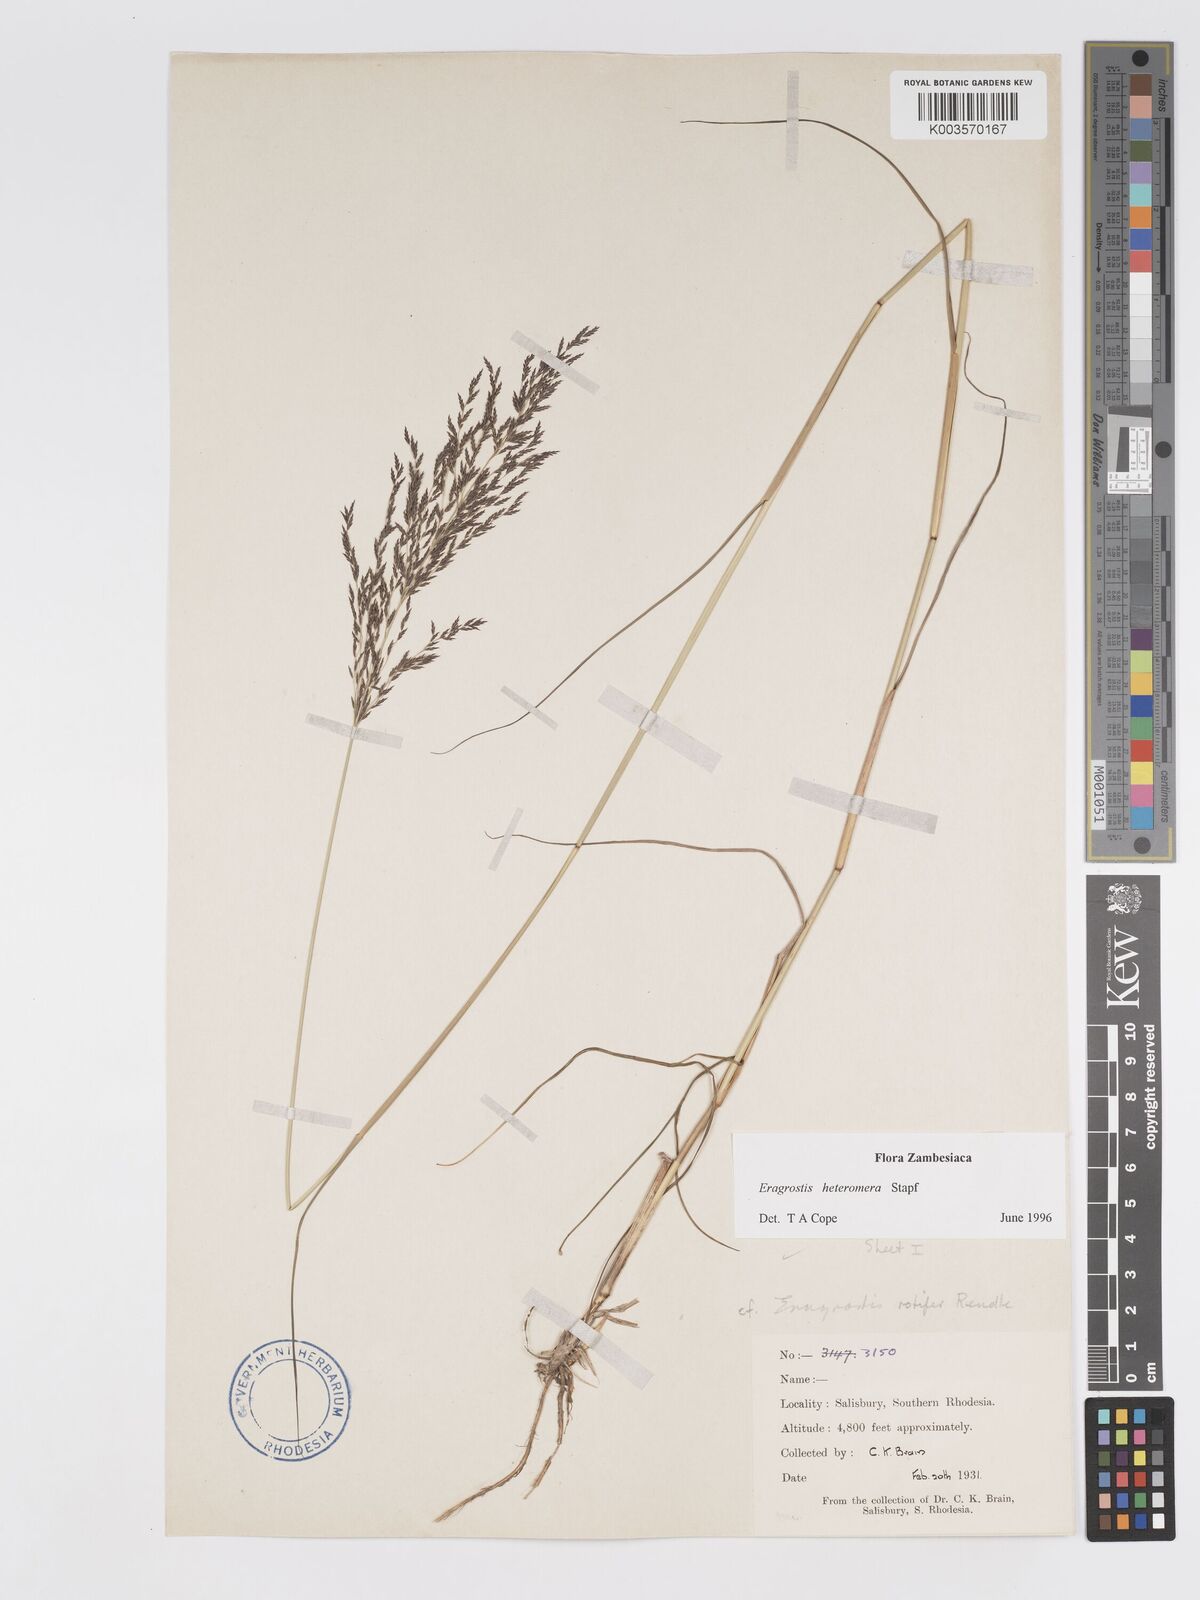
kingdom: Plantae
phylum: Tracheophyta
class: Liliopsida
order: Poales
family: Poaceae
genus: Eragrostis
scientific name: Eragrostis heteromera
